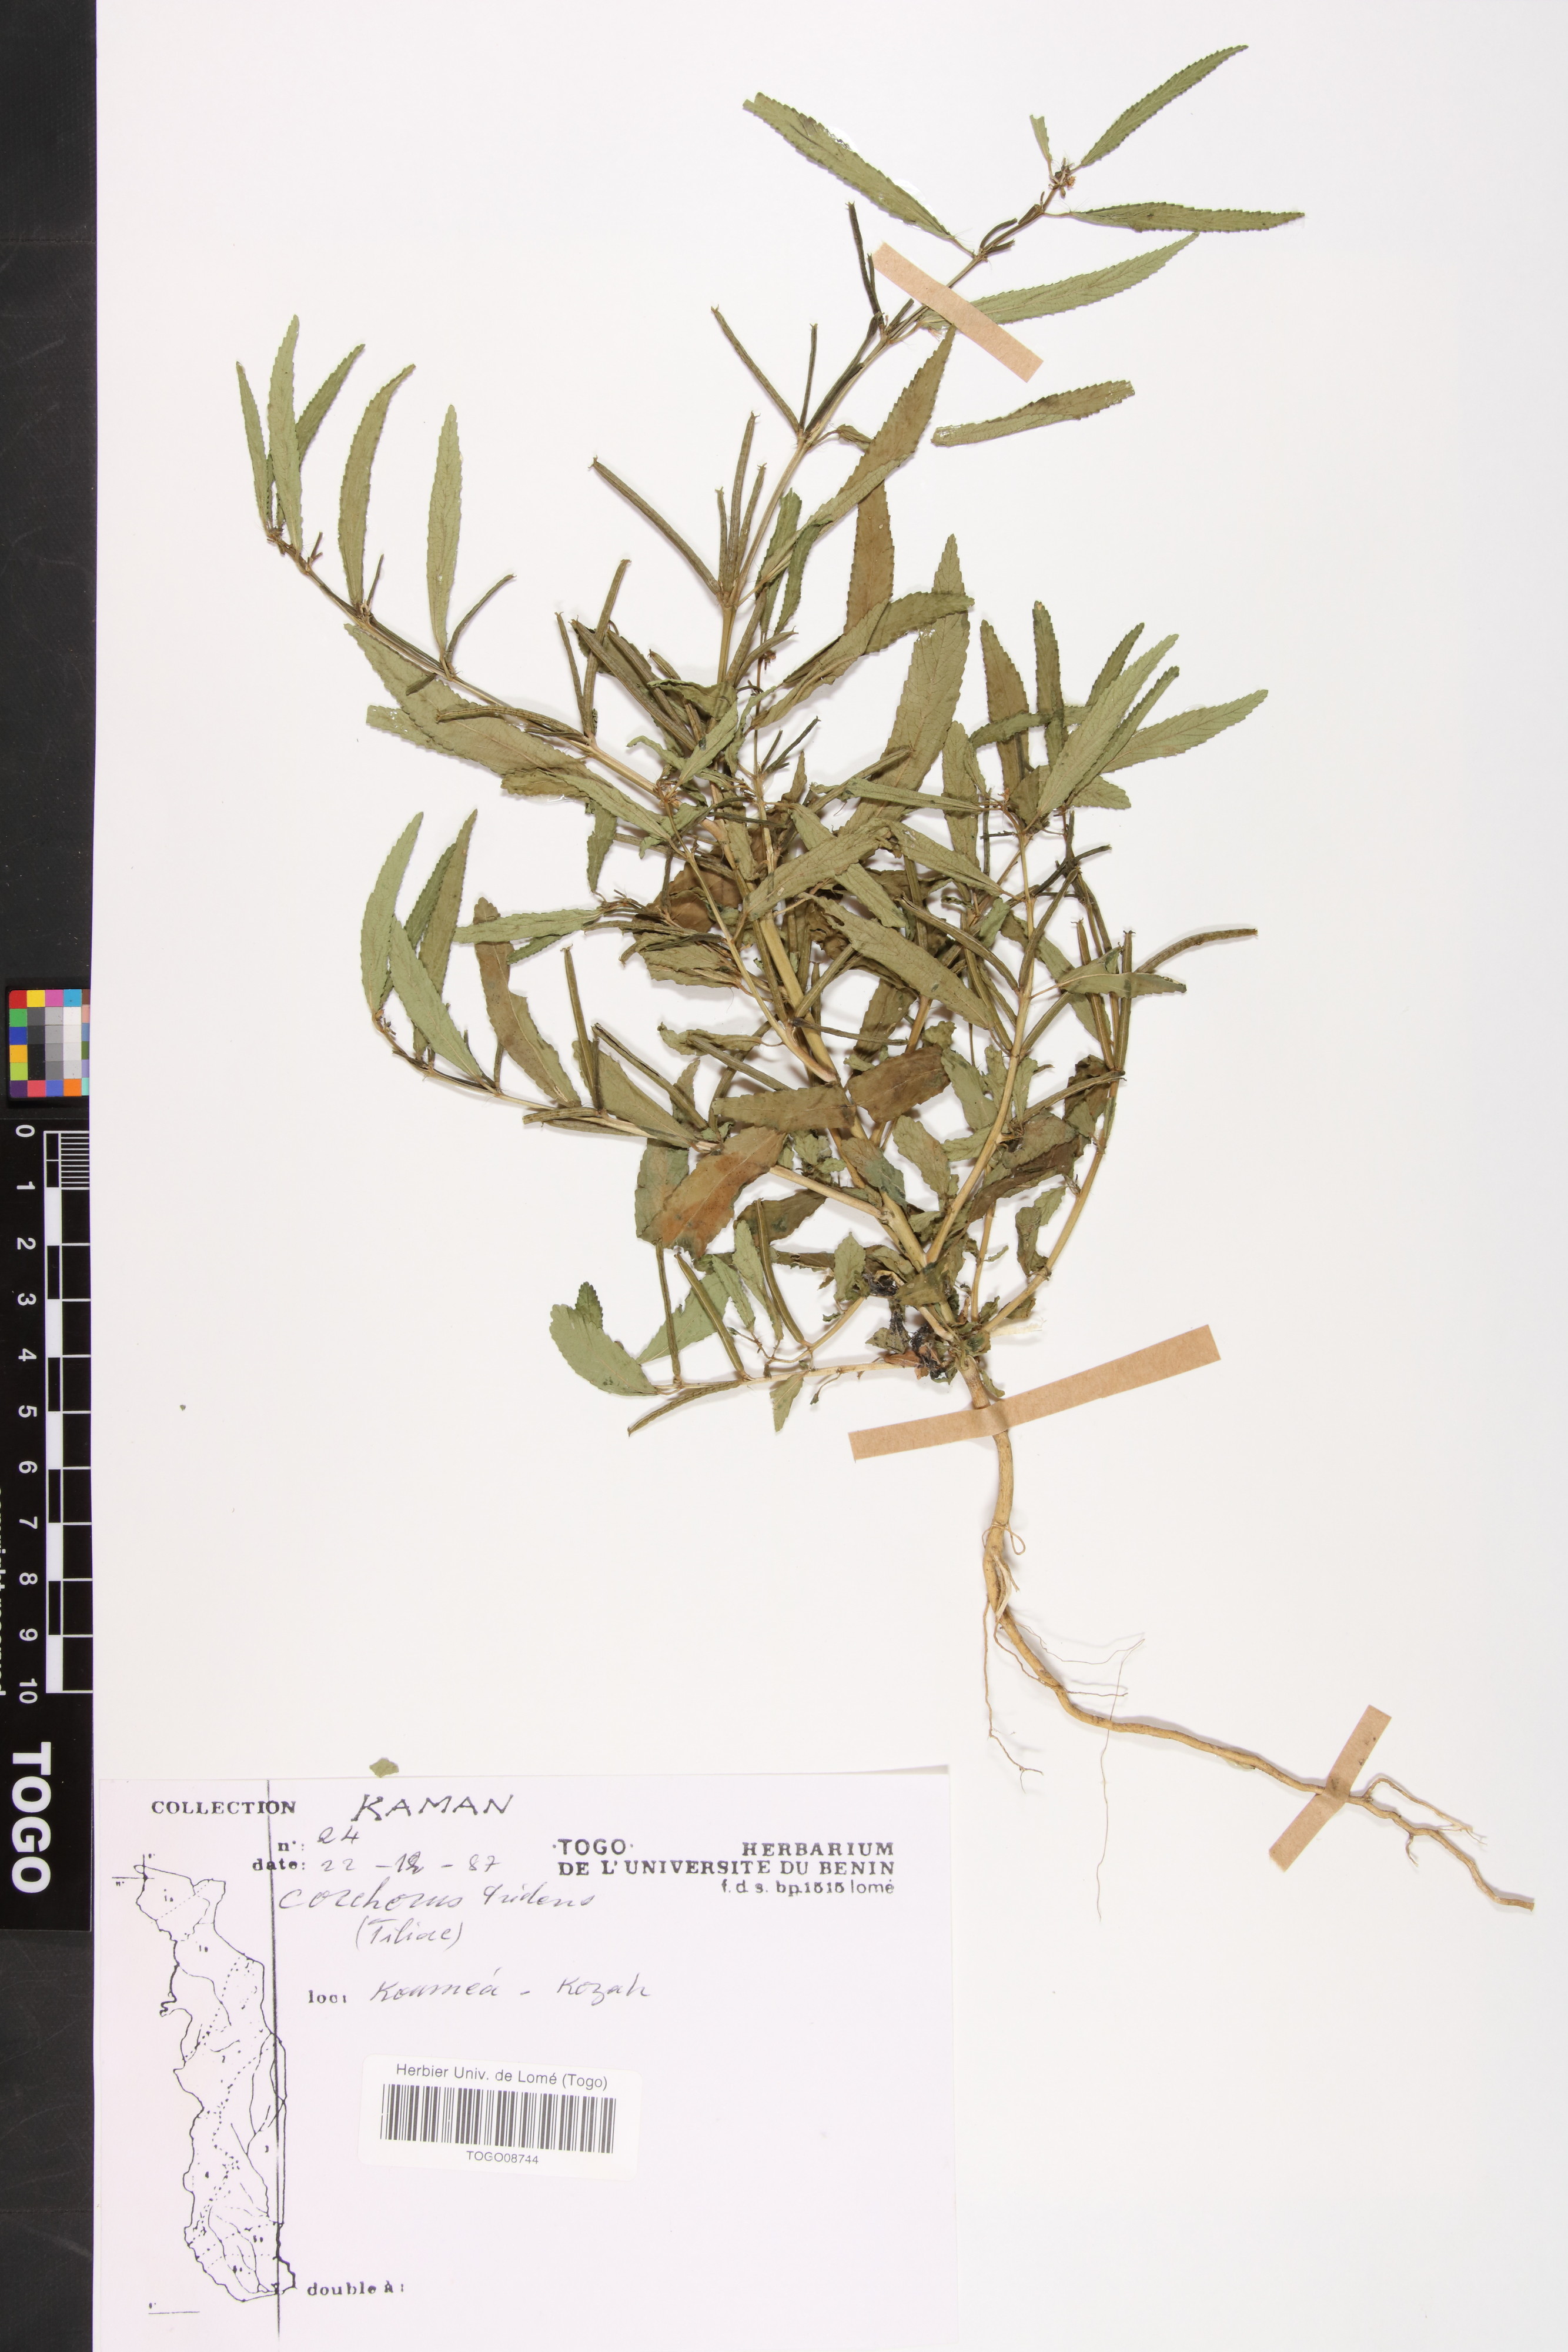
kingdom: Plantae
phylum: Tracheophyta
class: Magnoliopsida
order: Malvales
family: Malvaceae
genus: Corchorus
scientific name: Corchorus tridens
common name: Wild jute
